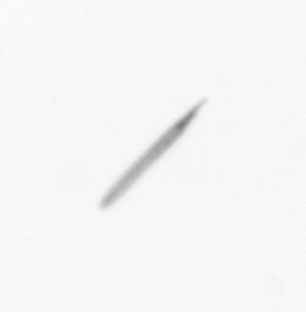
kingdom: Chromista
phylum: Ochrophyta
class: Bacillariophyceae
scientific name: Bacillariophyceae
